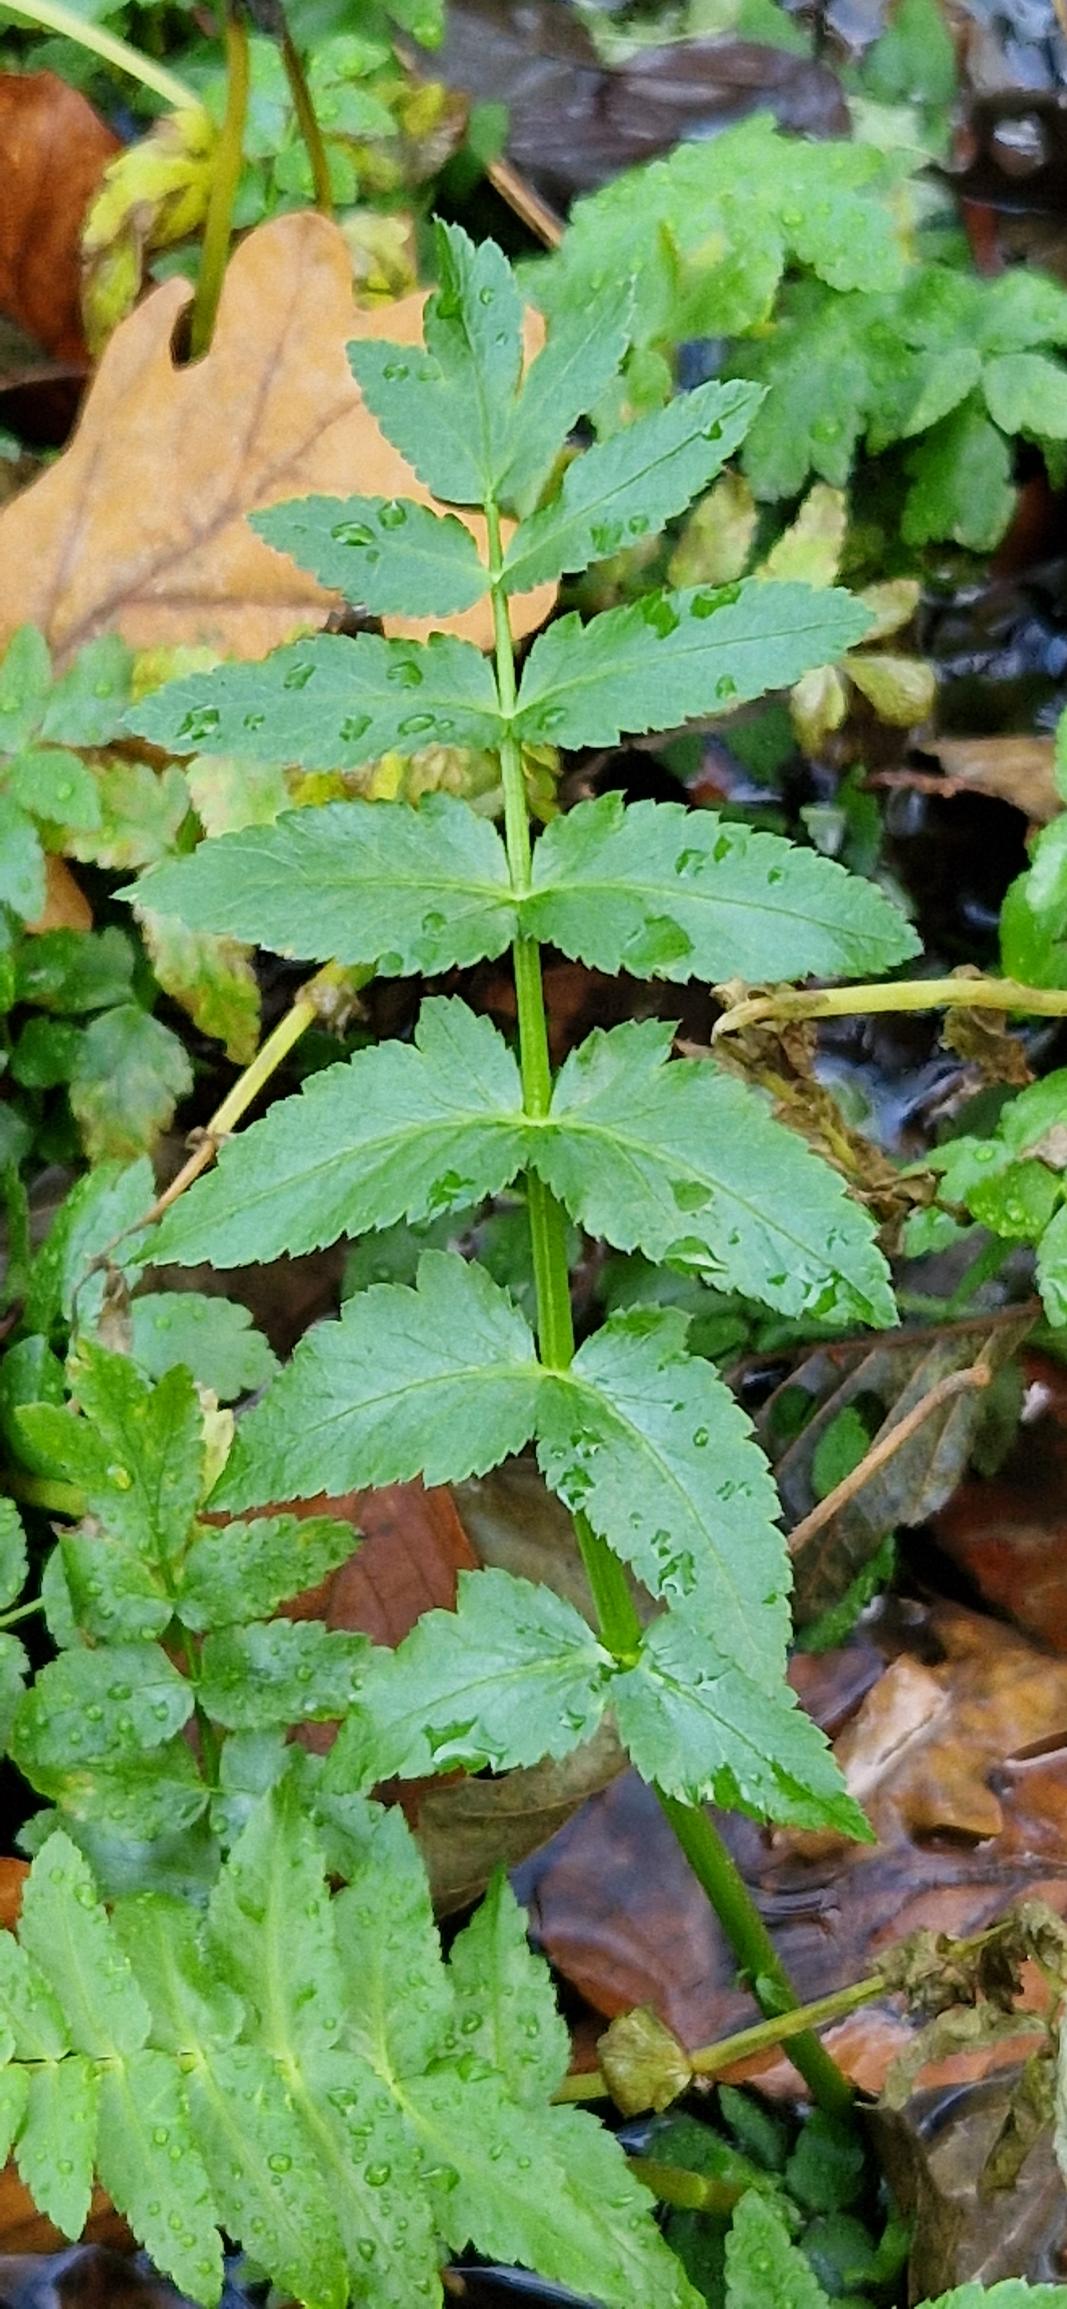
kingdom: Plantae
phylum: Tracheophyta
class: Magnoliopsida
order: Apiales
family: Apiaceae
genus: Berula
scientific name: Berula erecta
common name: Sideskærm
